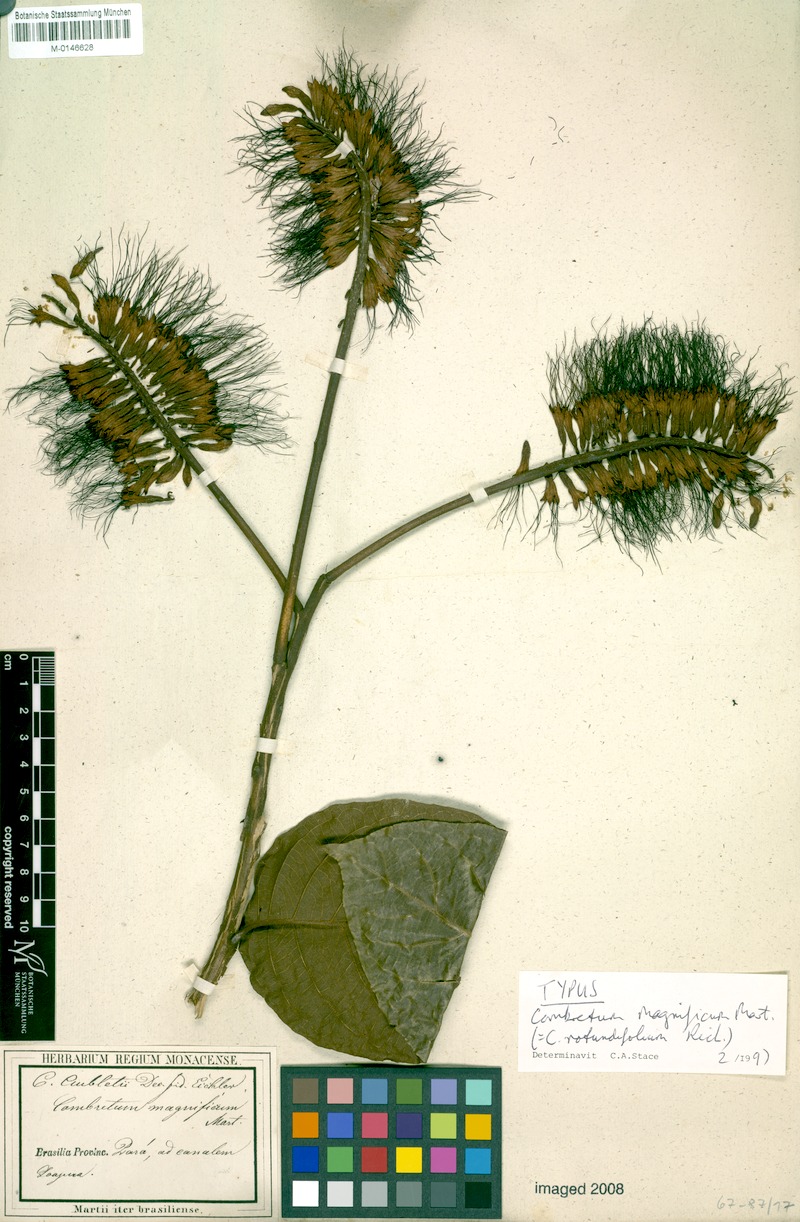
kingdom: Plantae
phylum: Tracheophyta
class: Magnoliopsida
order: Myrtales
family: Combretaceae
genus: Combretum
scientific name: Combretum rotundifolium
